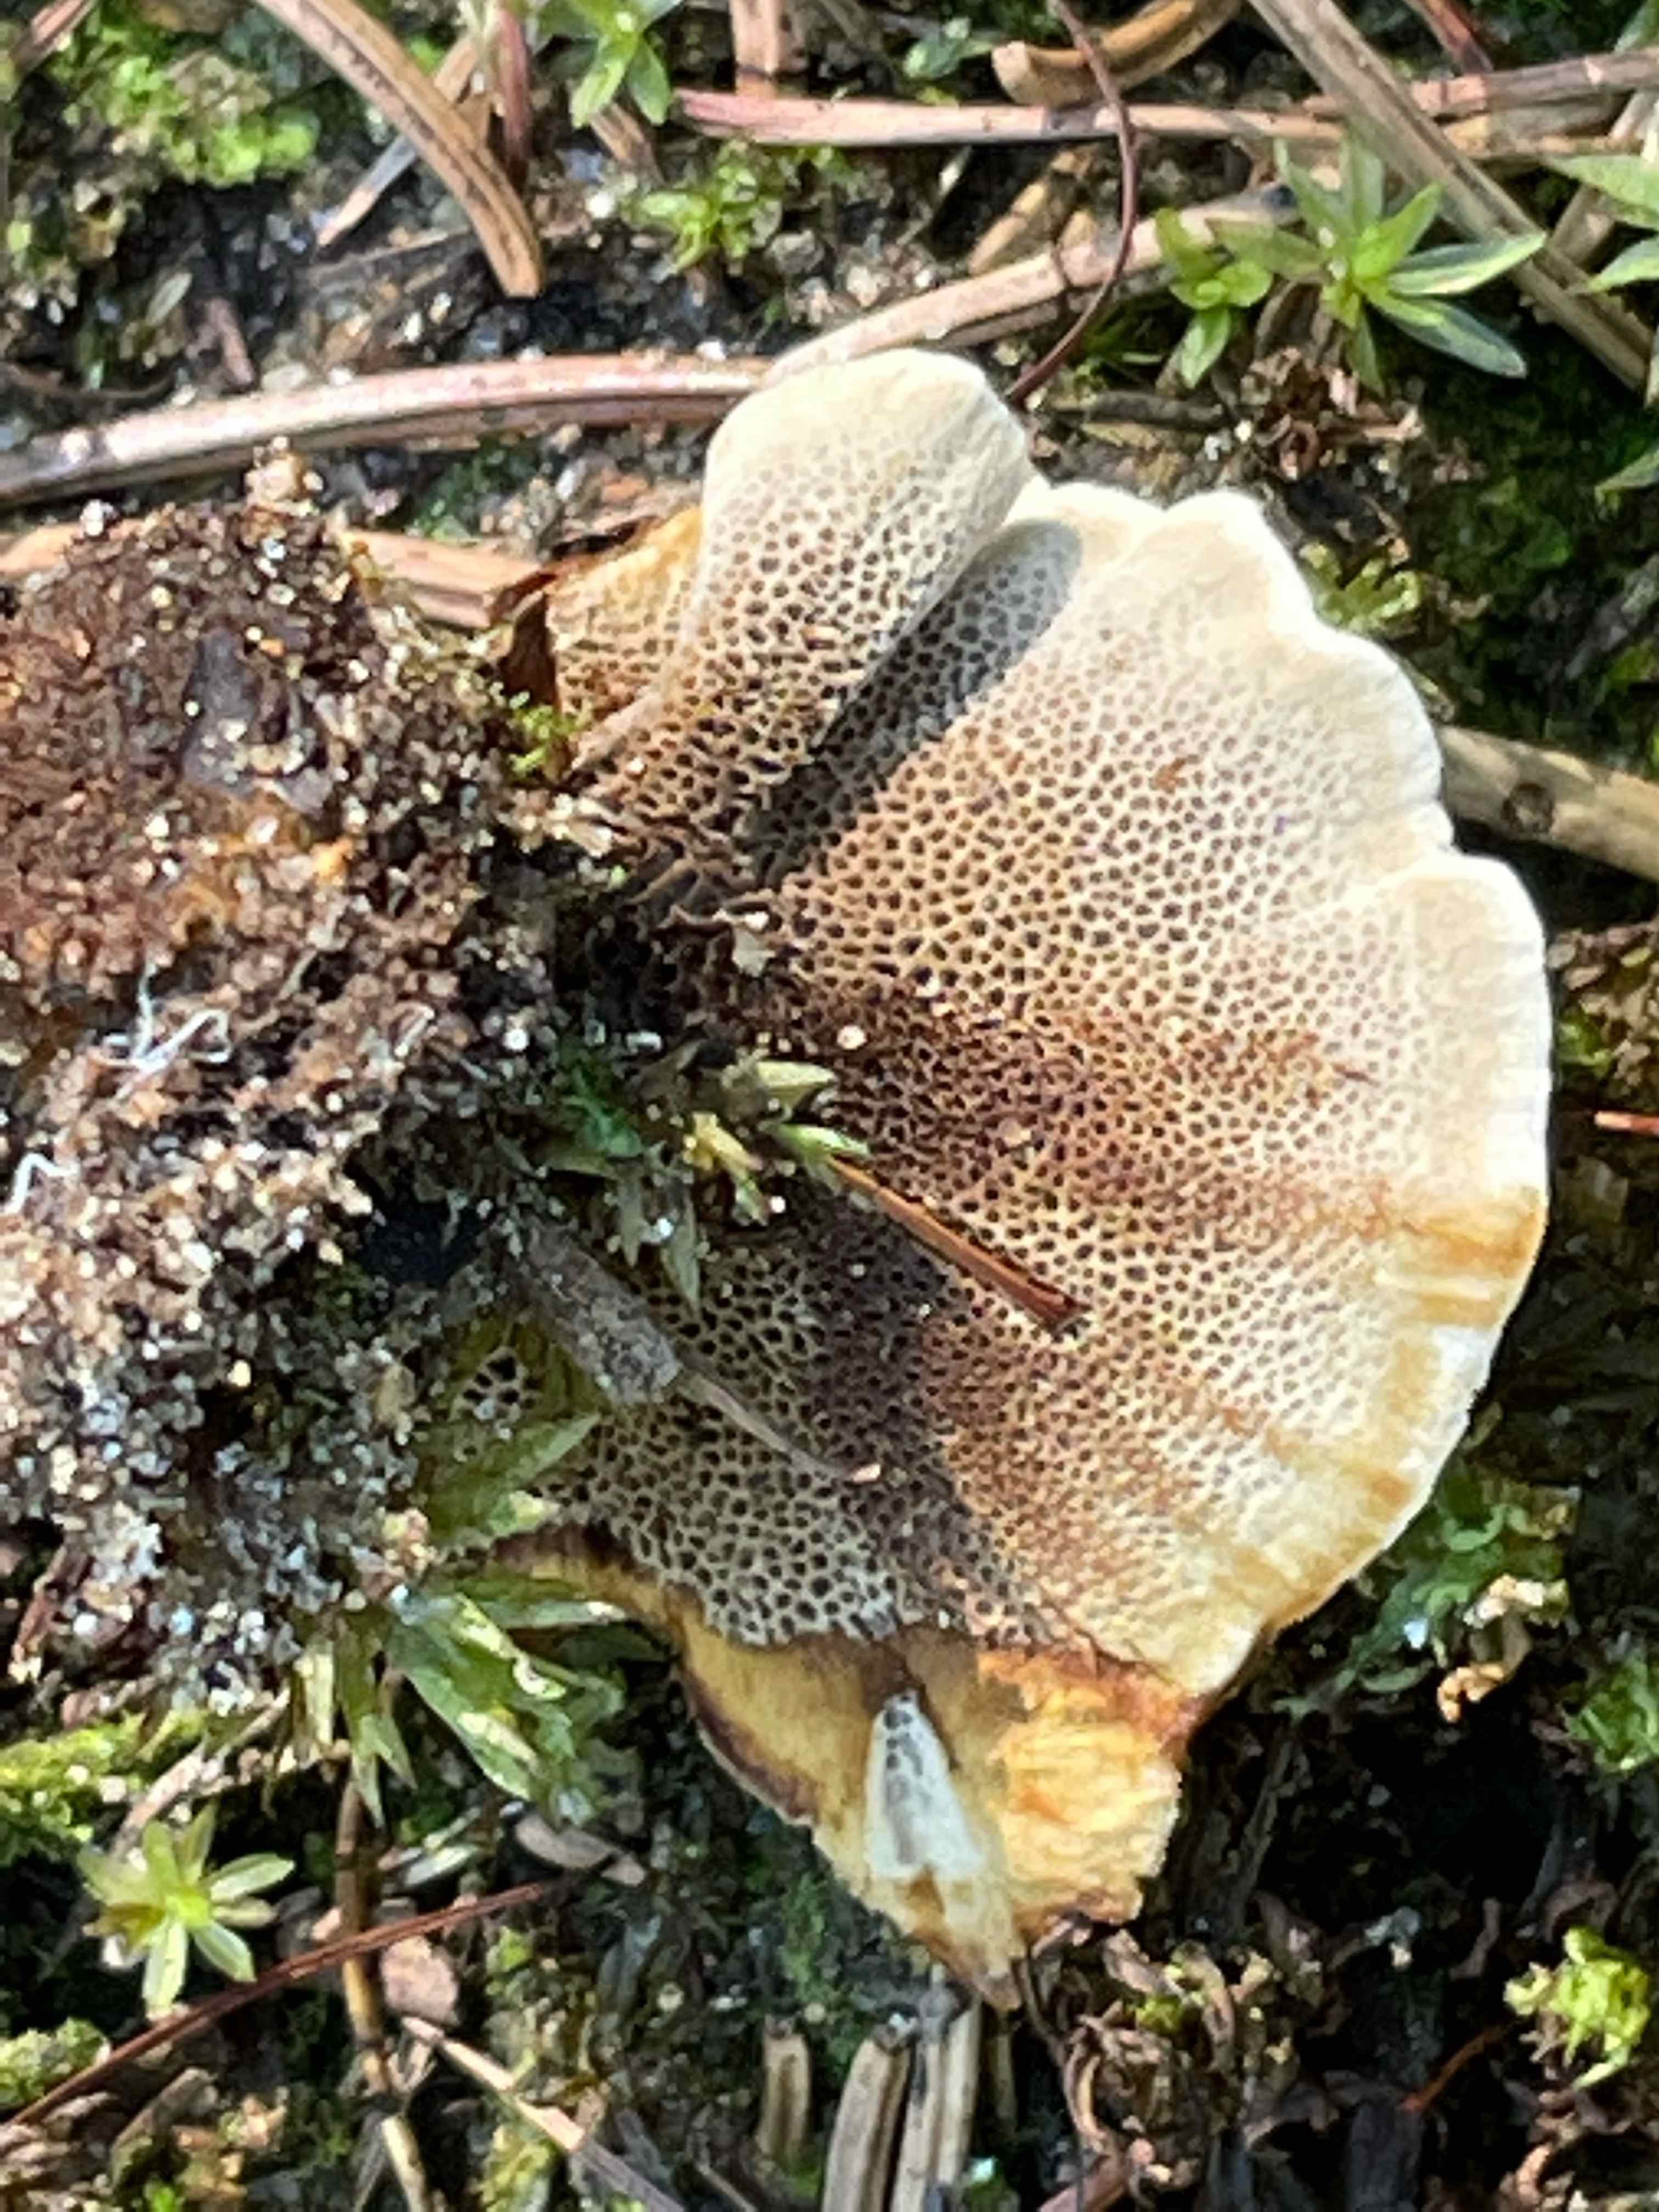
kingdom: Fungi
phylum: Basidiomycota
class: Agaricomycetes
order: Hymenochaetales
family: Hymenochaetaceae
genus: Coltricia
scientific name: Coltricia perennis
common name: almindelig sandporesvamp
